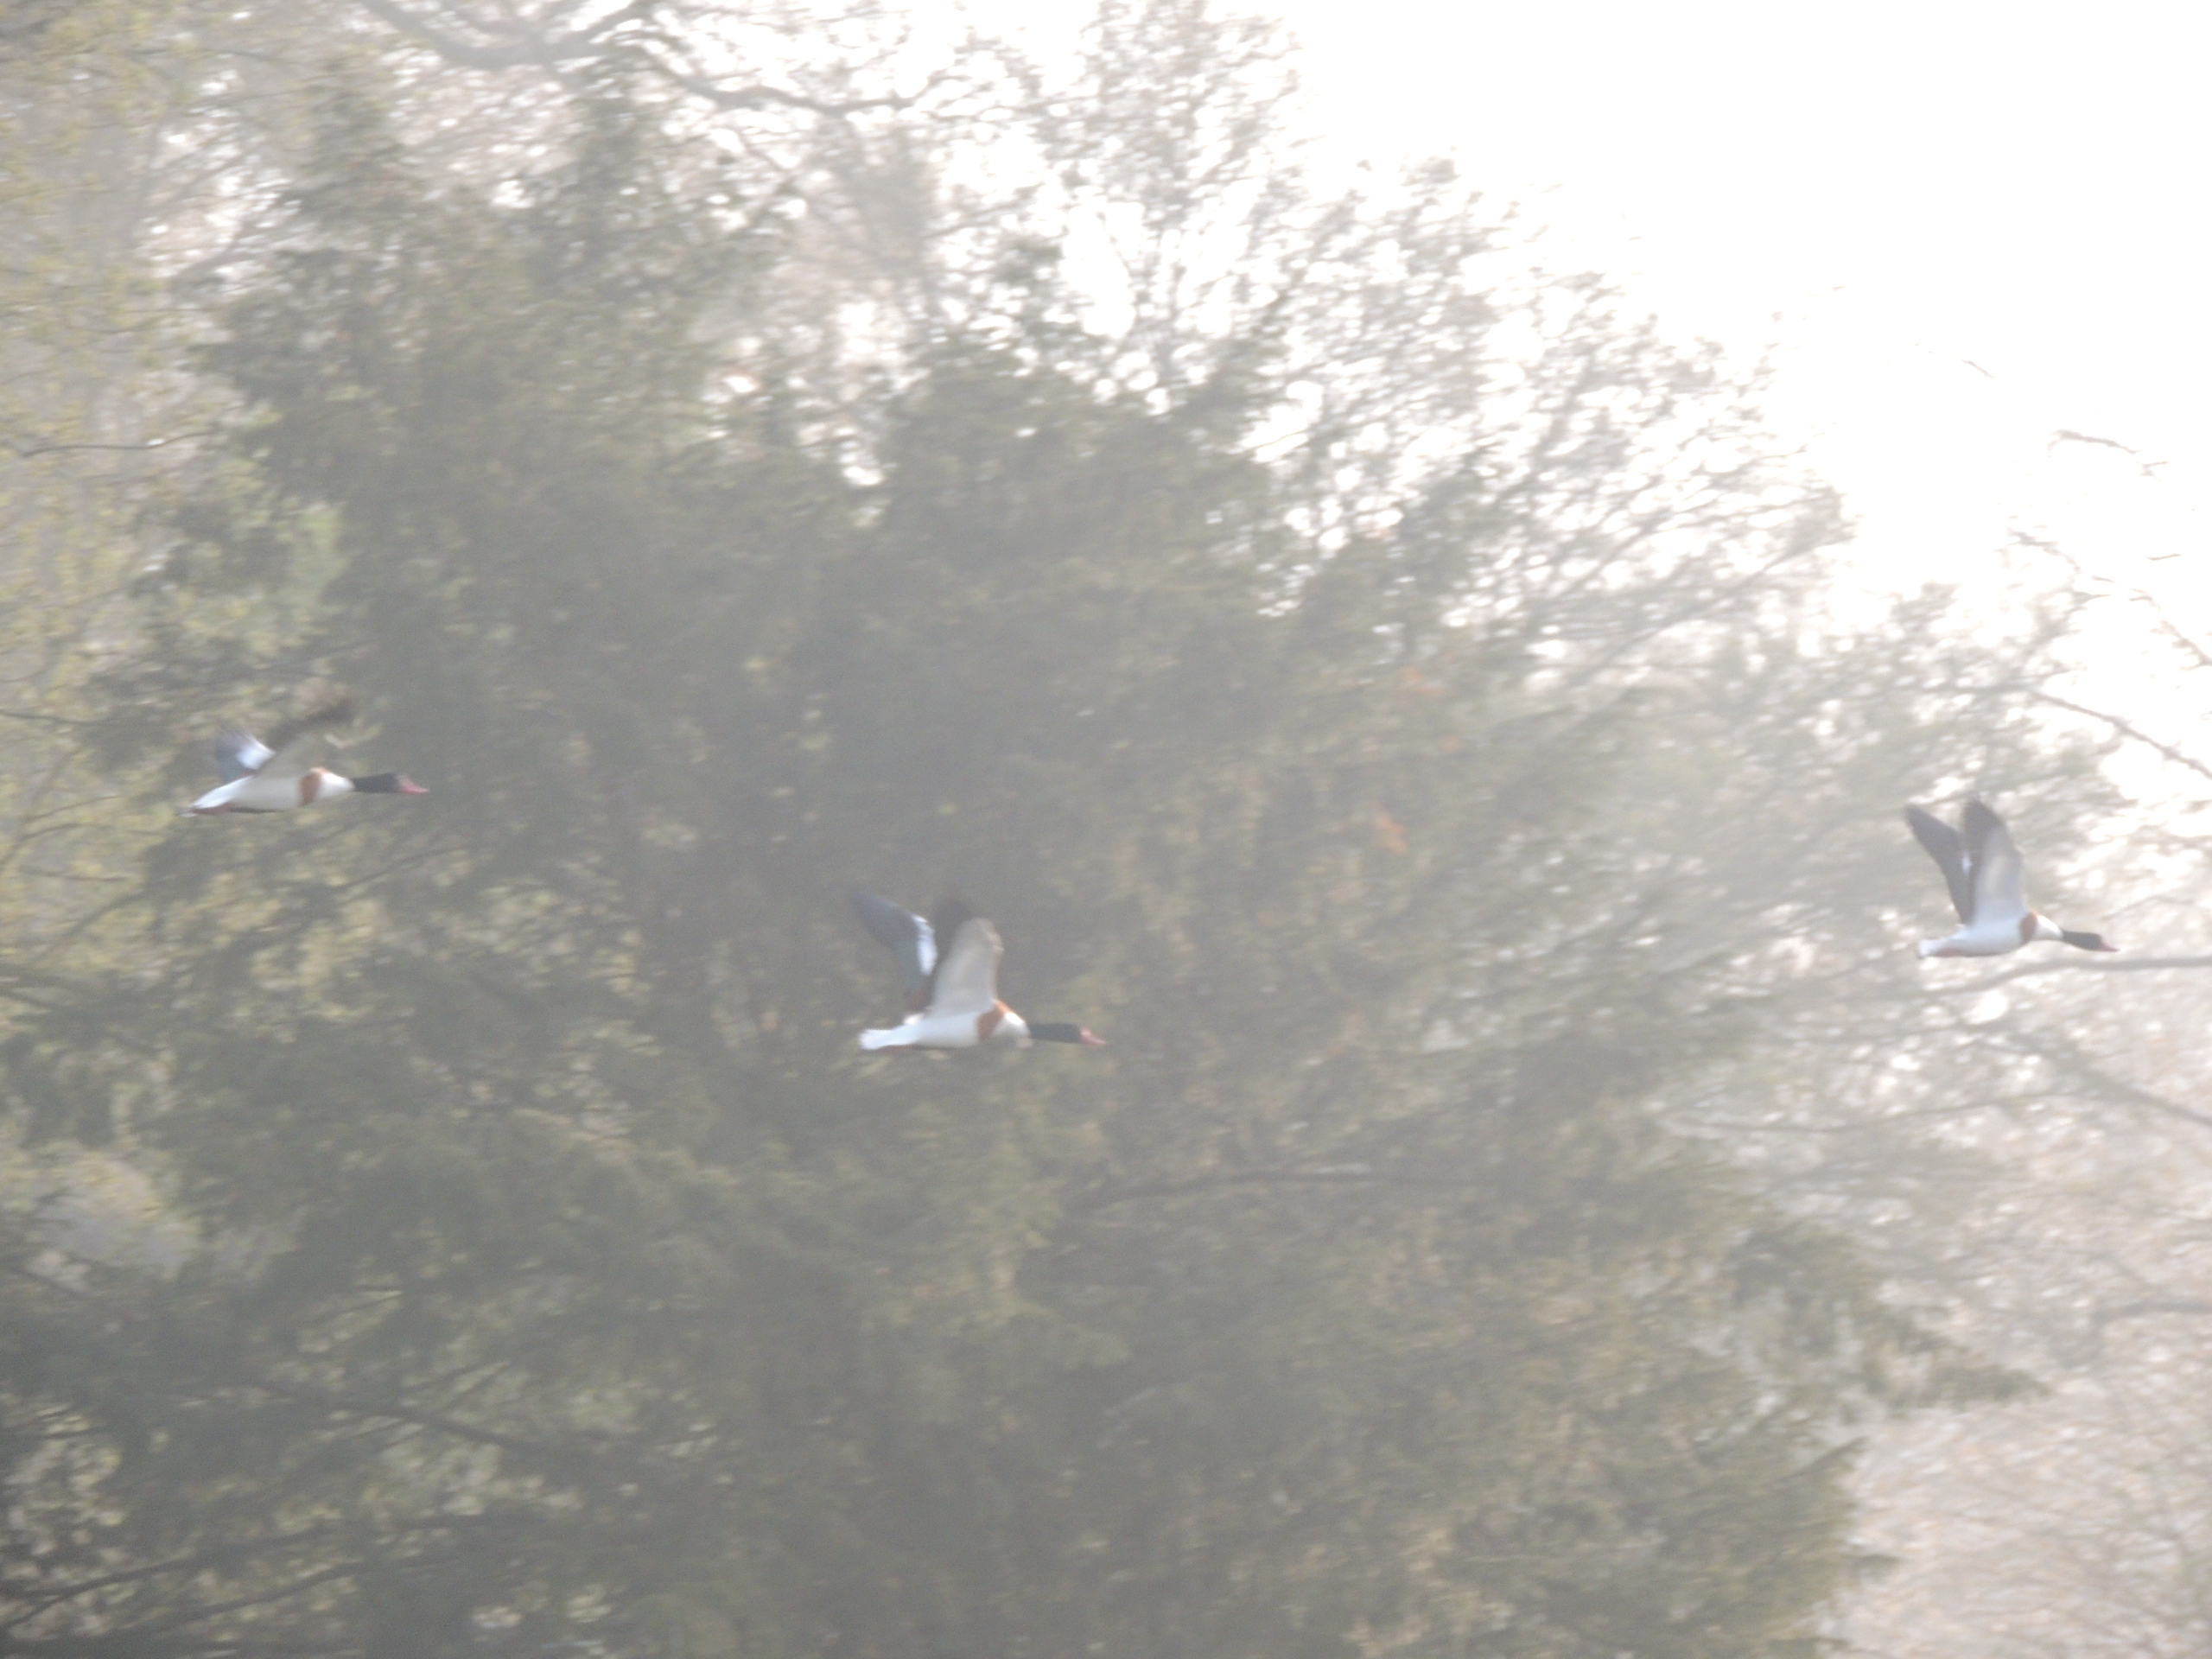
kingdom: Animalia
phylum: Chordata
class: Aves
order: Anseriformes
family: Anatidae
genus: Tadorna
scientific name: Tadorna tadorna
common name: Gravand
